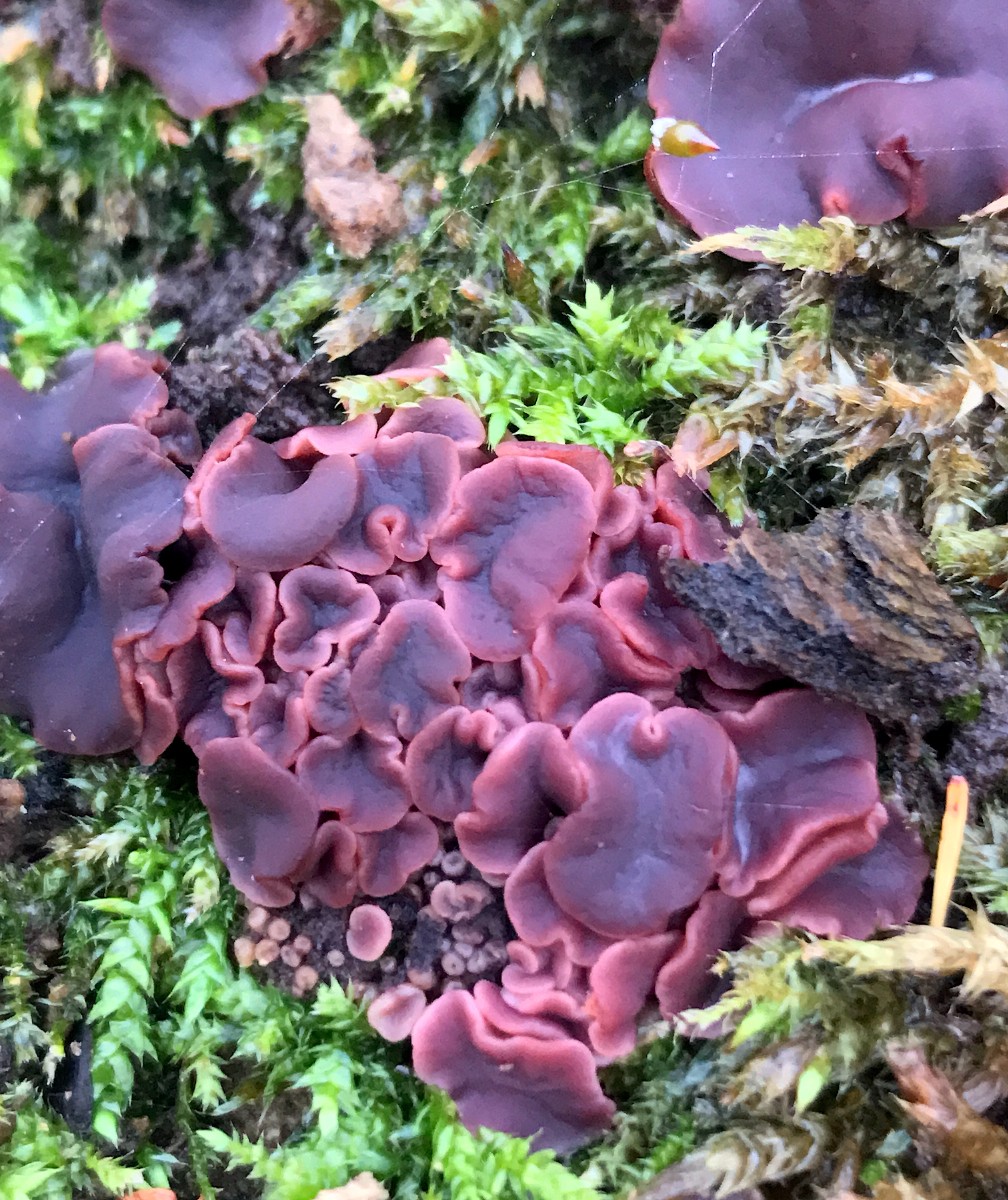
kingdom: Fungi
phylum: Ascomycota
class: Leotiomycetes
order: Helotiales
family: Gelatinodiscaceae
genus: Ascocoryne
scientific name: Ascocoryne cylichnium
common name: stor sejskive
